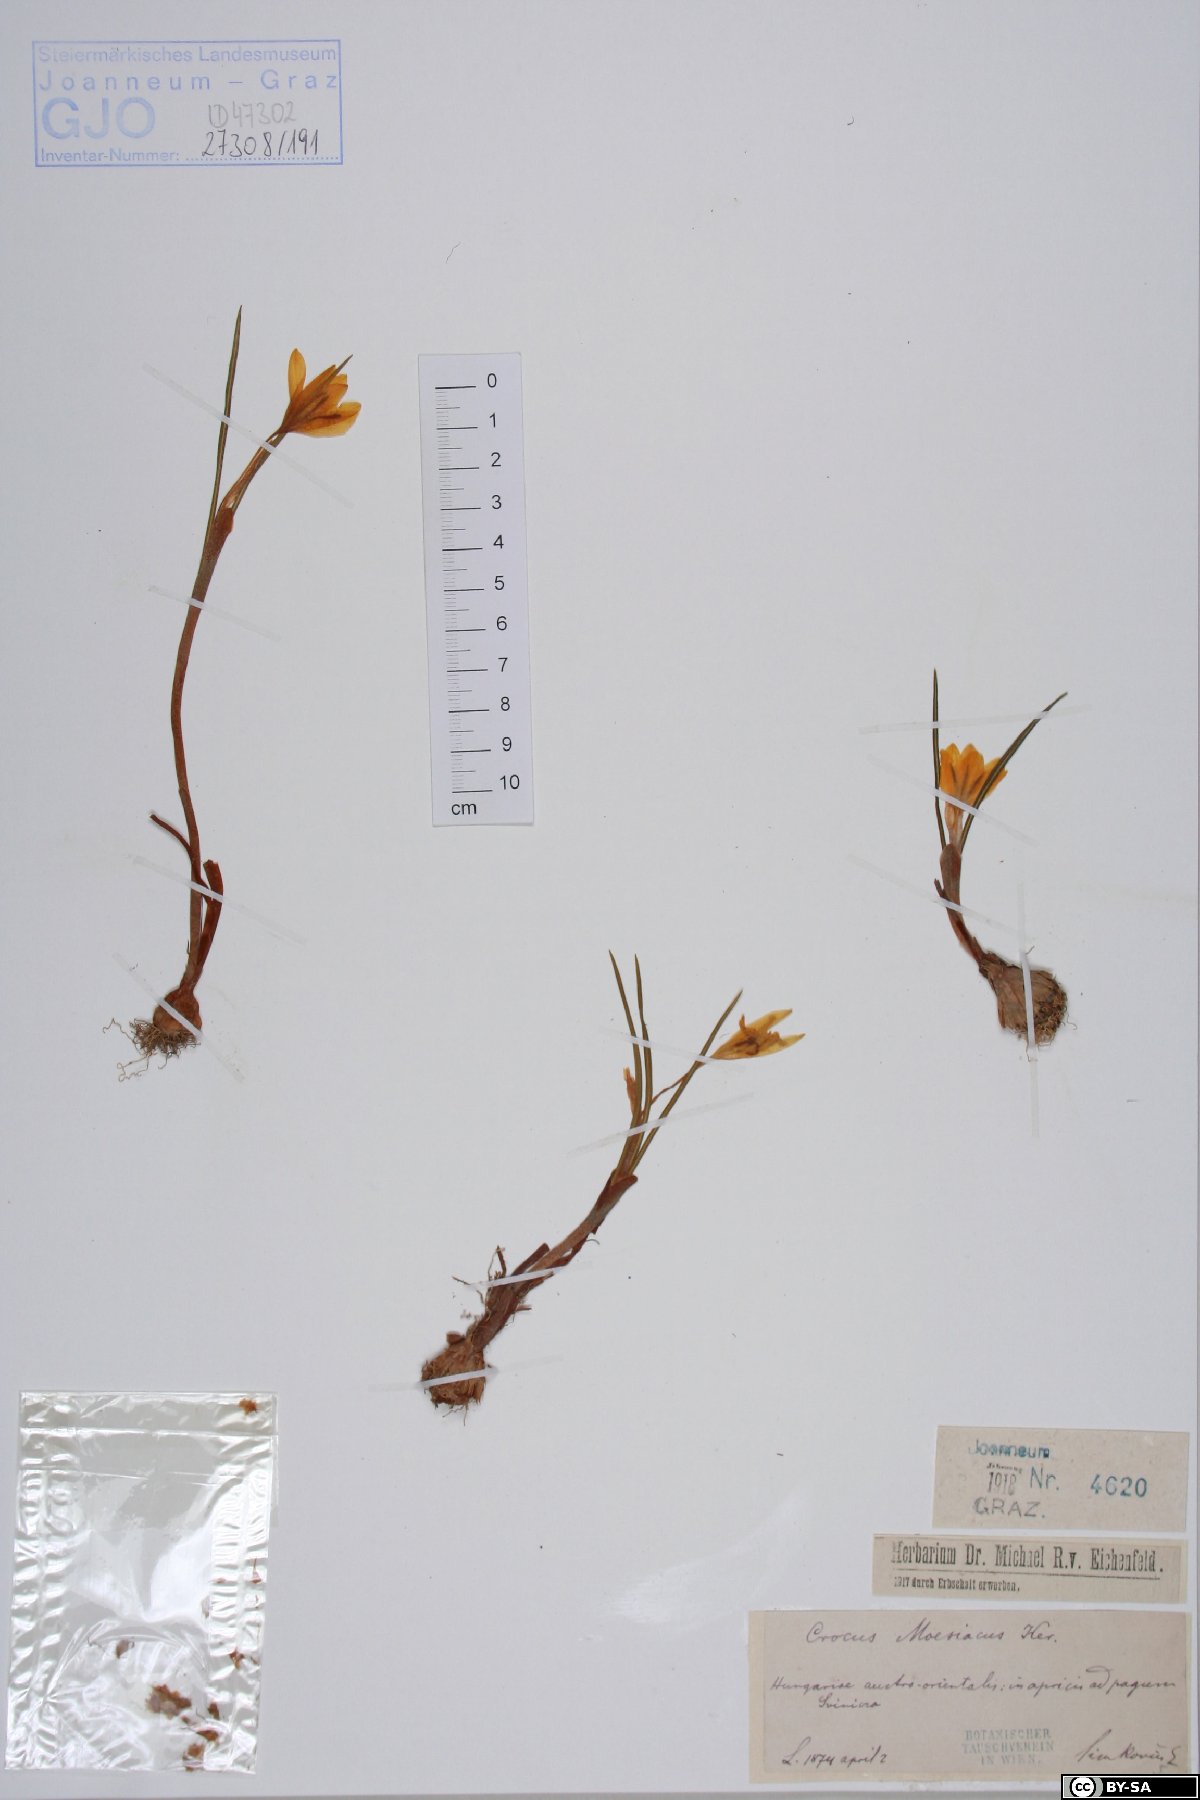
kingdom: Plantae
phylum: Tracheophyta
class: Liliopsida
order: Asparagales
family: Iridaceae
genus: Crocus
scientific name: Crocus flavus
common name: Yellow crocus
